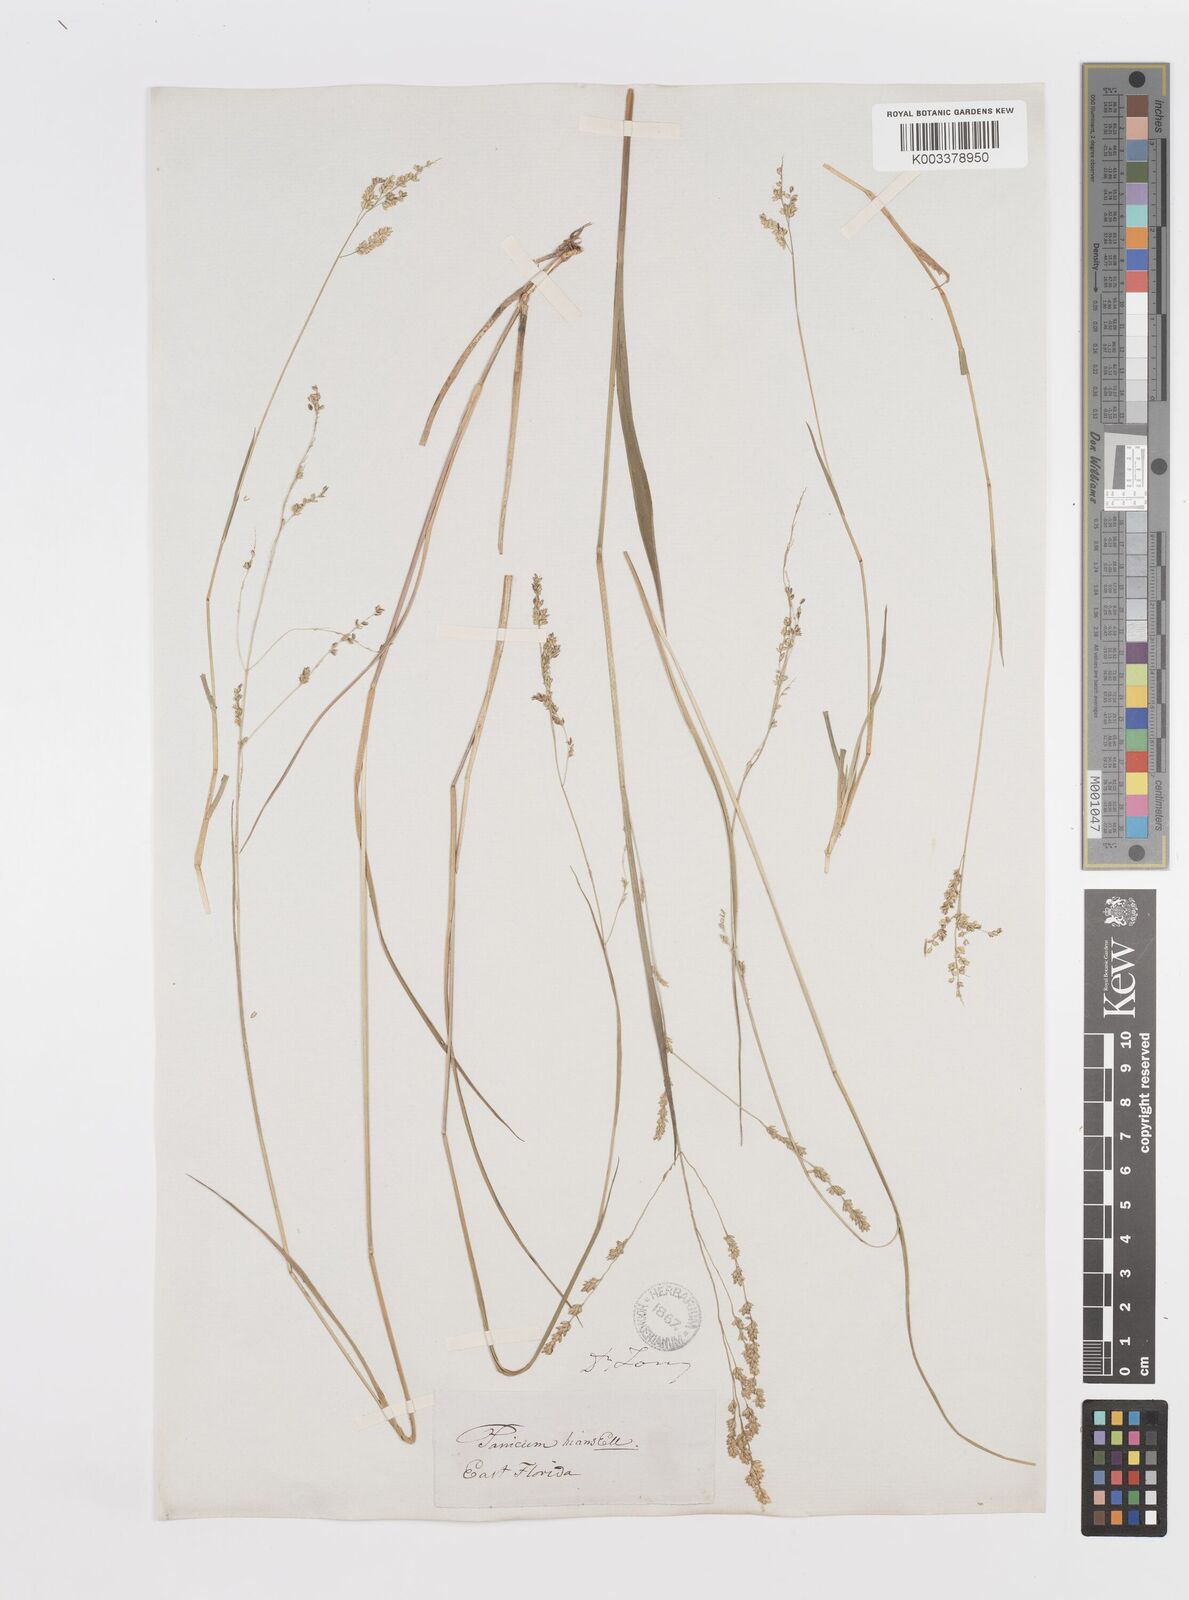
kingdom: Plantae
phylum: Tracheophyta
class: Liliopsida
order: Poales
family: Poaceae
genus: Steinchisma
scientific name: Steinchisma hians
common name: Gaping panic grass
